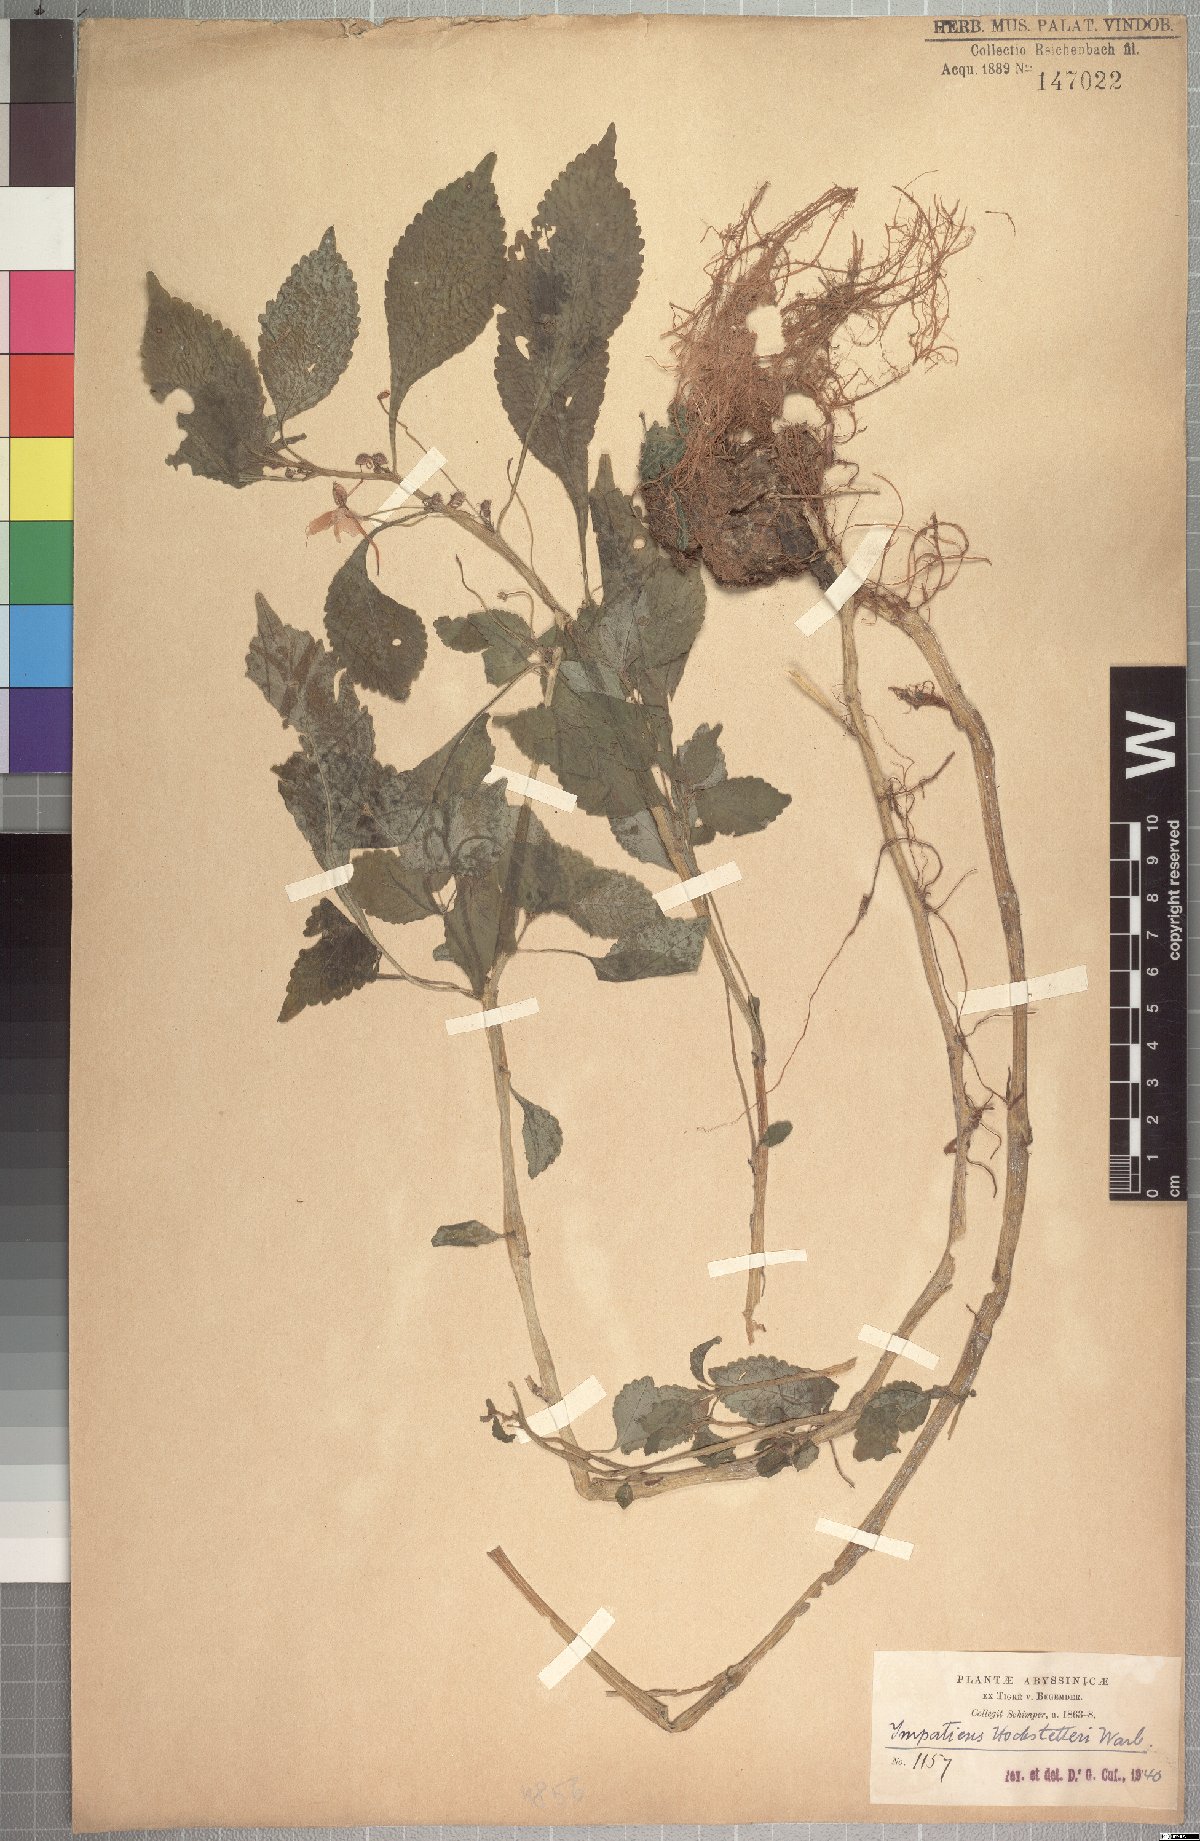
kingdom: Plantae
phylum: Tracheophyta
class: Magnoliopsida
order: Ericales
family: Balsaminaceae
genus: Impatiens
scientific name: Impatiens hochstetteri
